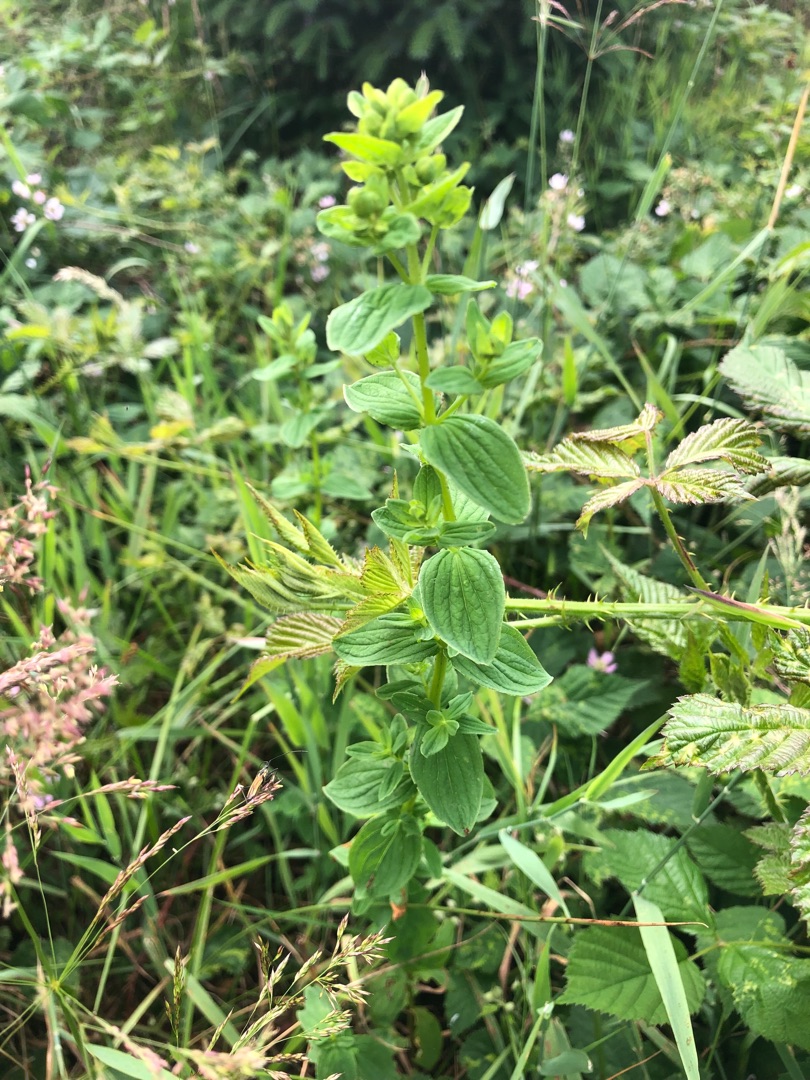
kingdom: Plantae
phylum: Tracheophyta
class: Magnoliopsida
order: Malpighiales
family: Hypericaceae
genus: Hypericum
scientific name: Hypericum maculatum
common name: Kantet perikon
